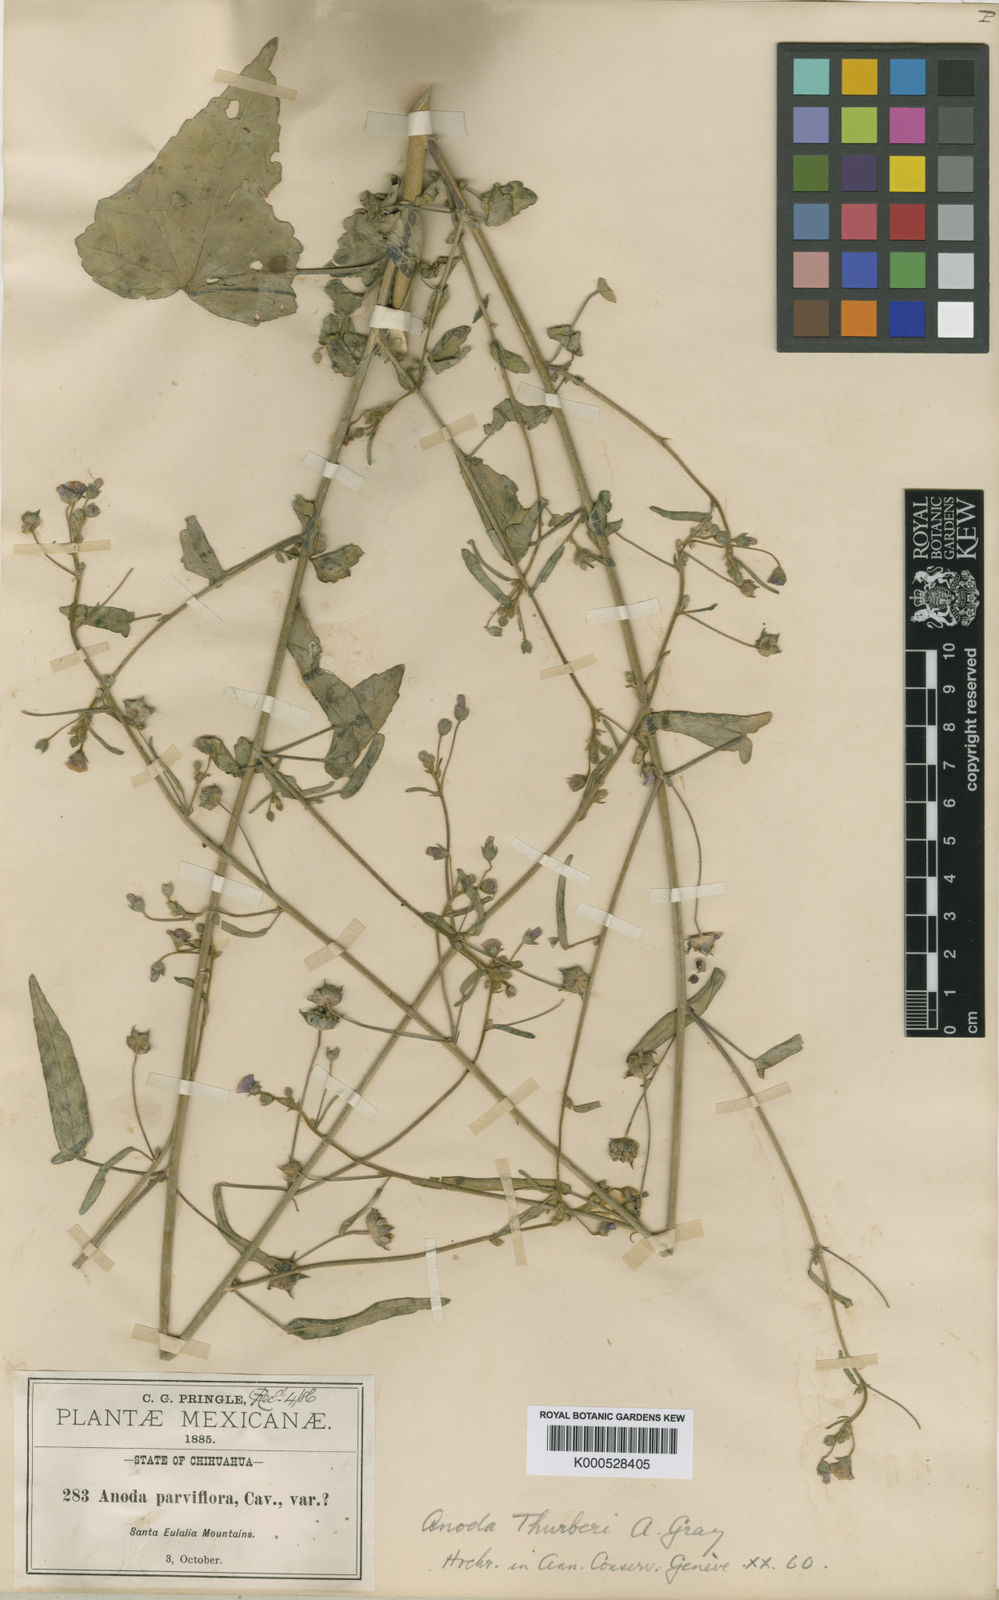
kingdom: Plantae
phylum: Tracheophyta
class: Magnoliopsida
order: Malvales
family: Malvaceae
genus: Anoda
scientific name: Anoda thurberi
